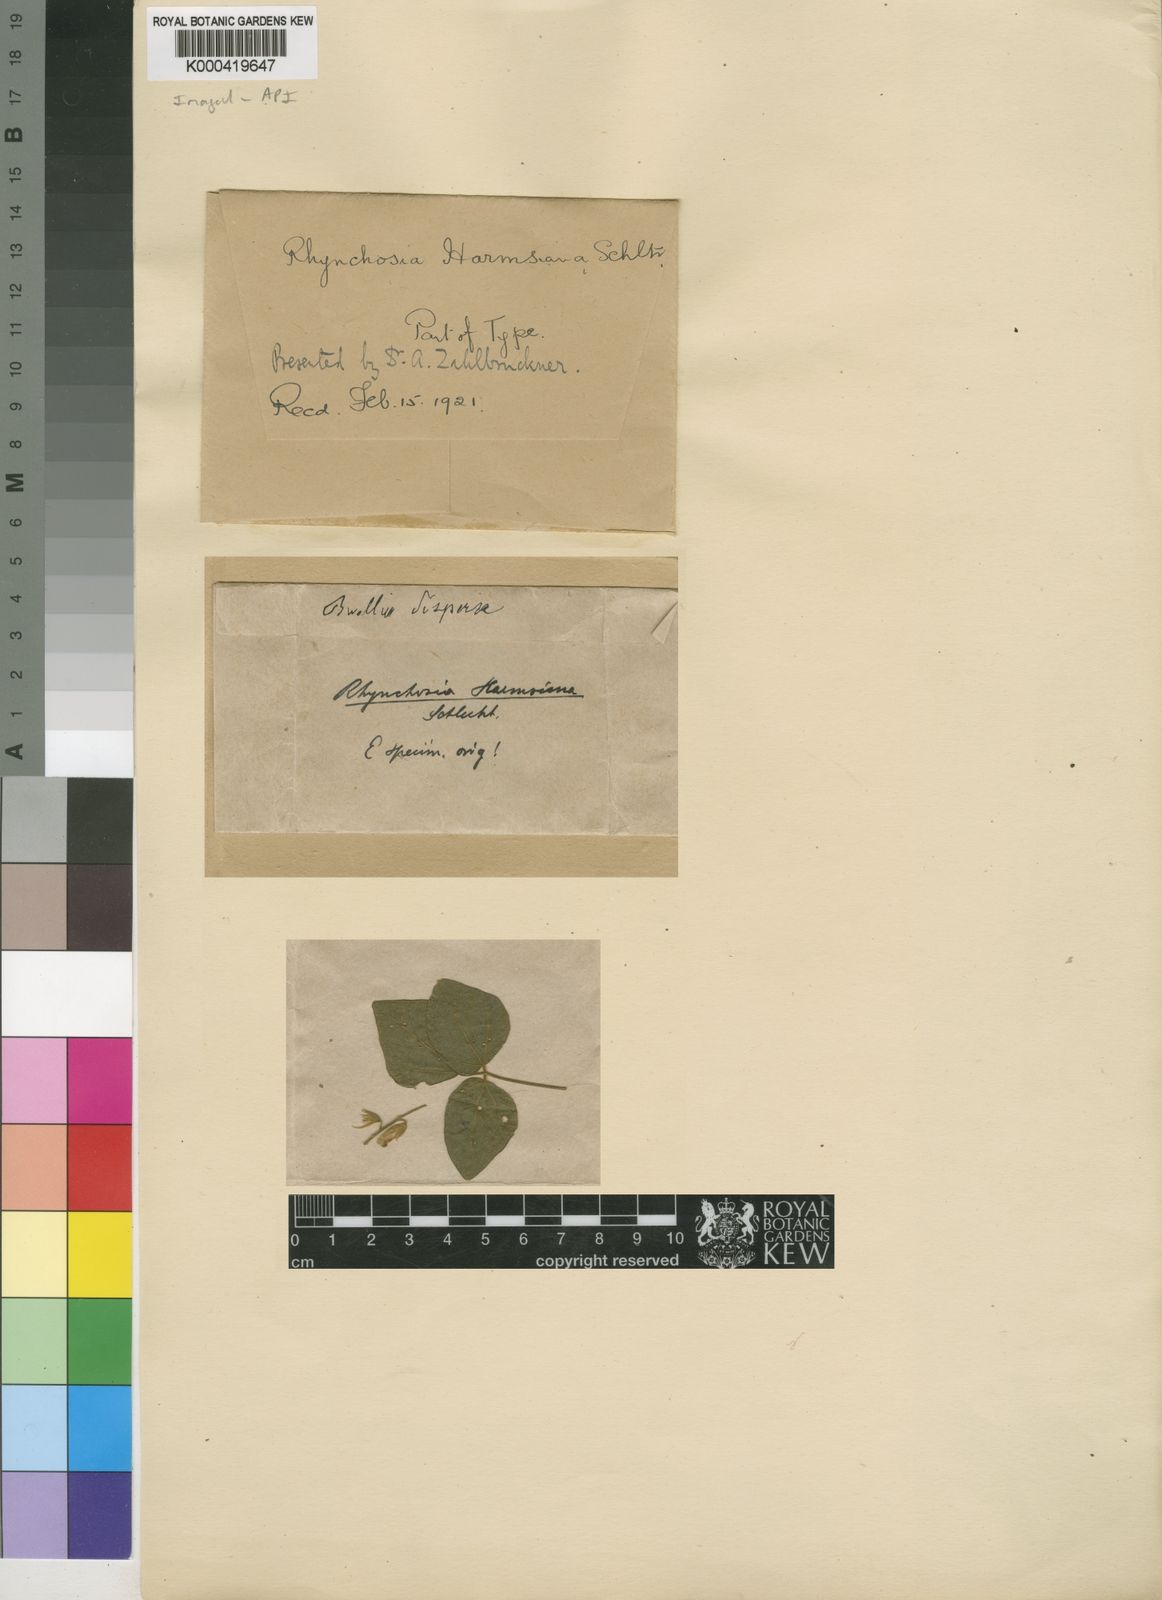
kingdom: Plantae
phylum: Tracheophyta
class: Magnoliopsida
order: Fabales
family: Fabaceae
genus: Rhynchosia
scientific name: Rhynchosia minima
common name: Least snoutbean
